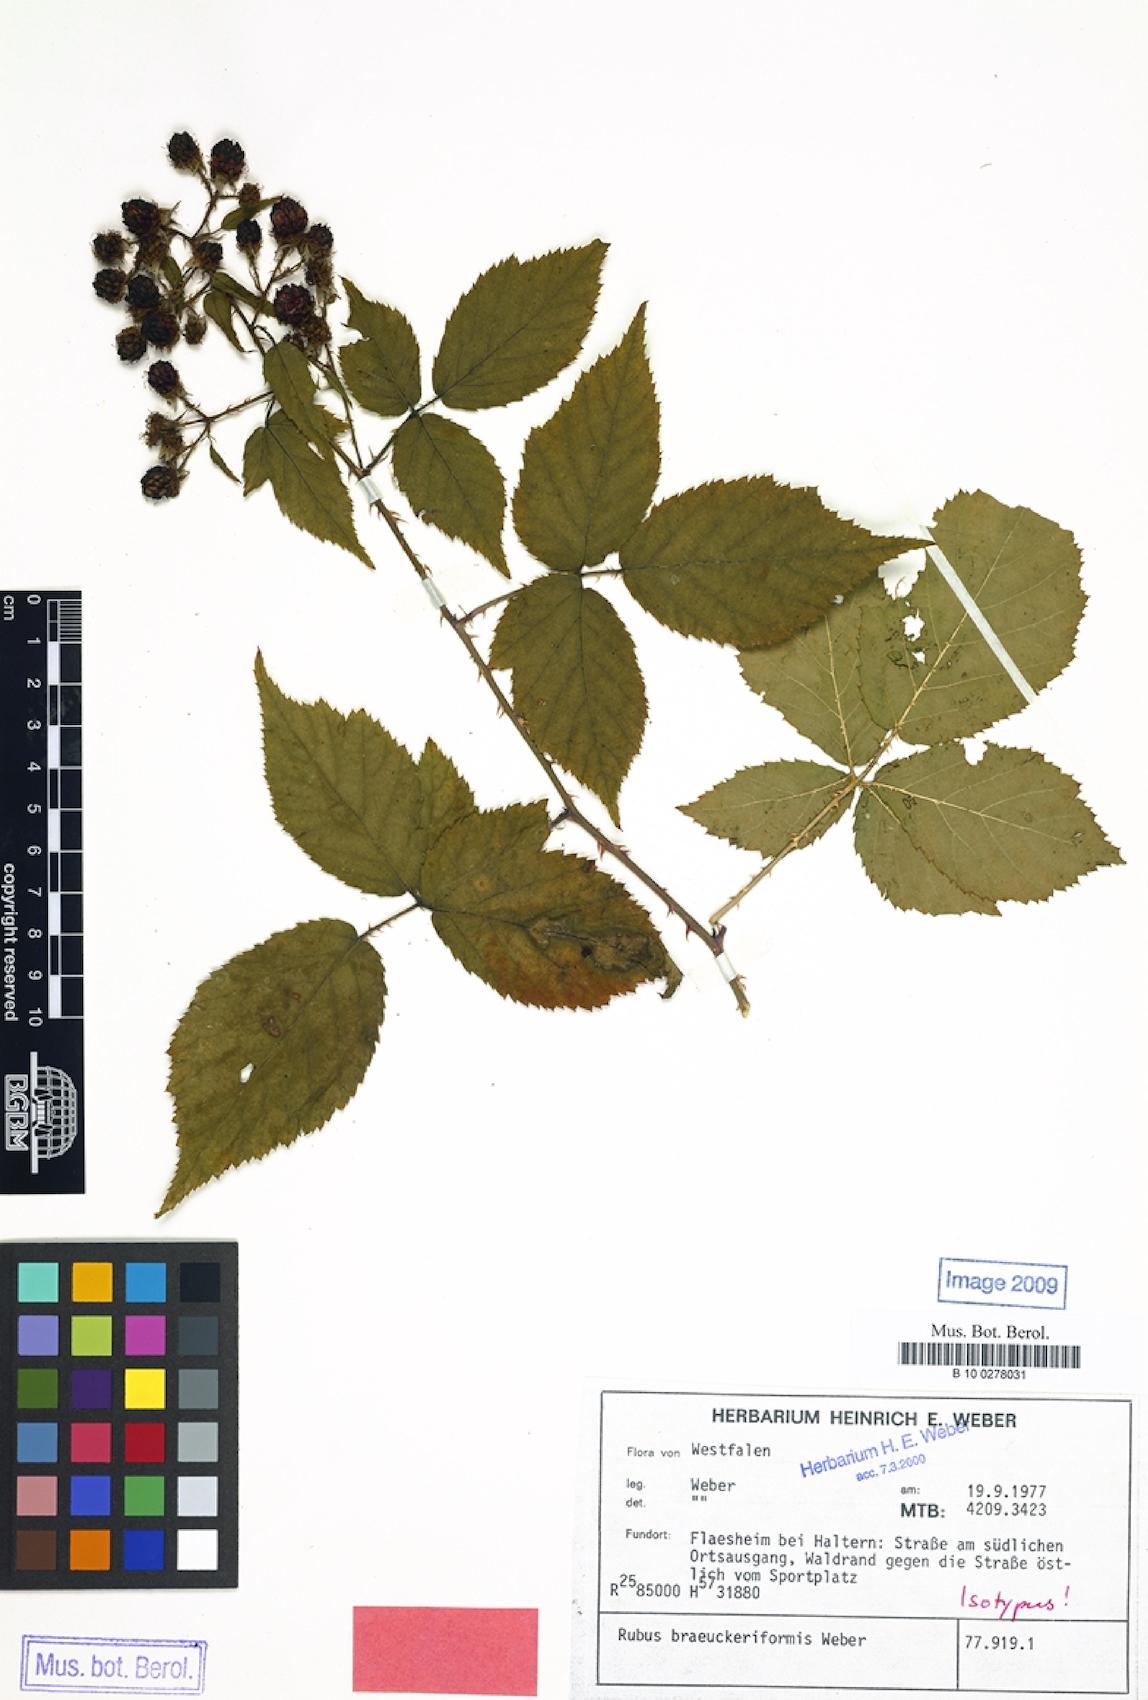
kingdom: Plantae
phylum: Tracheophyta
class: Magnoliopsida
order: Rosales
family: Rosaceae
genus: Rubus
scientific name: Rubus braeuckeriformis
